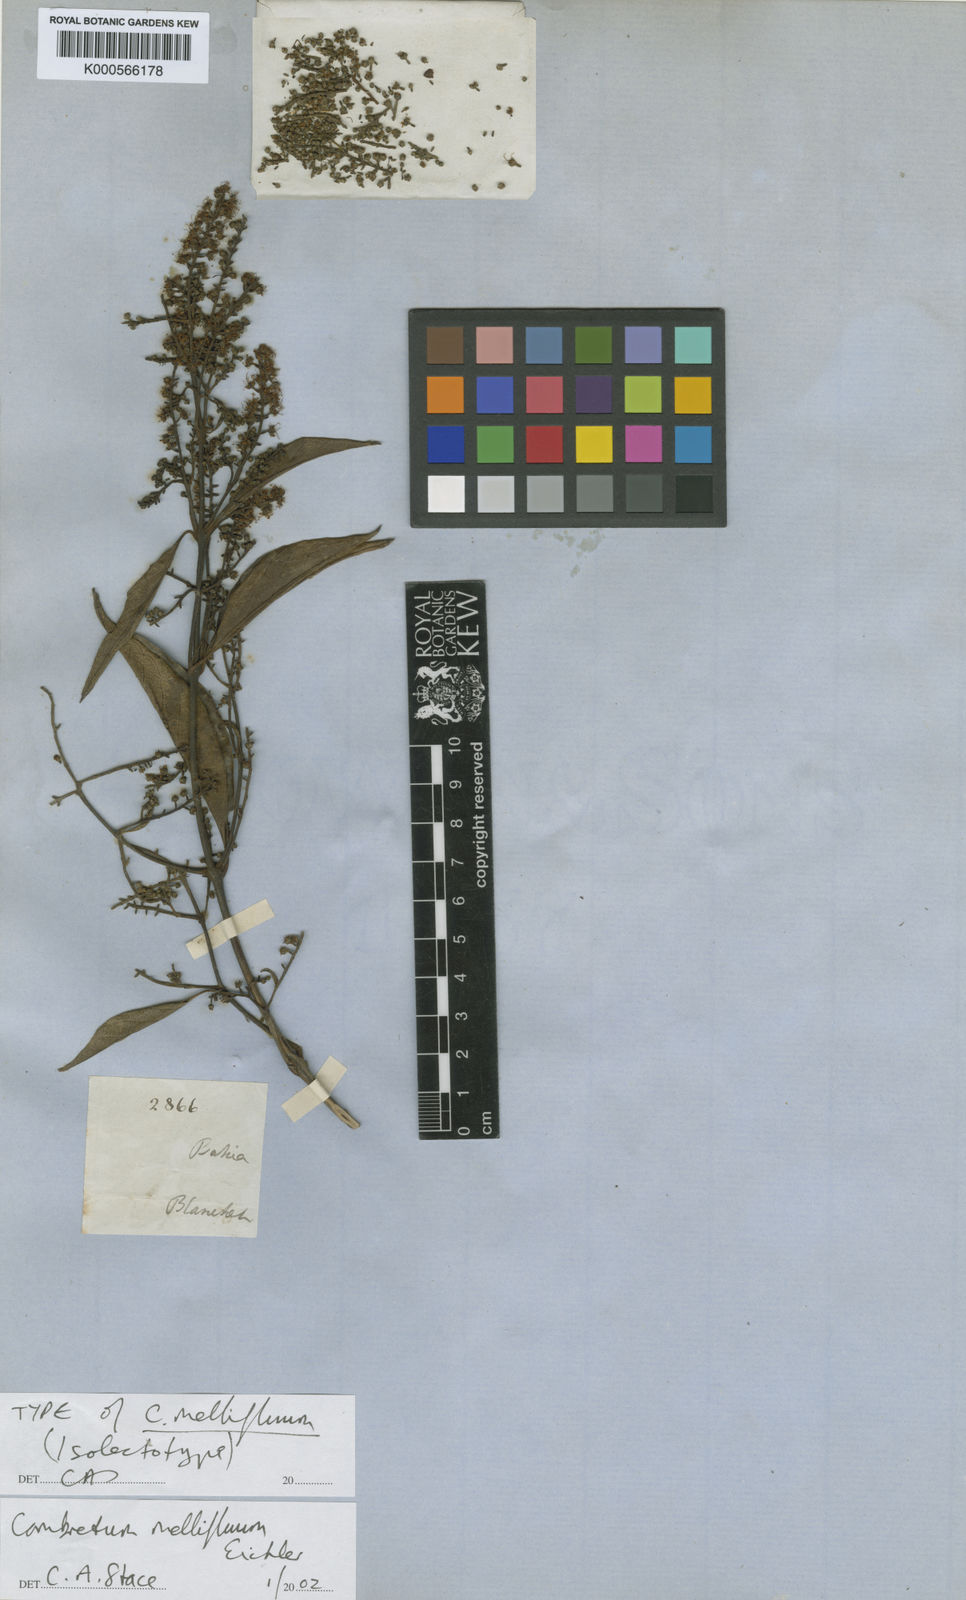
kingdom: Plantae
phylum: Tracheophyta
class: Magnoliopsida
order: Myrtales
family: Combretaceae
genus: Combretum
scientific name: Combretum mellifluum
